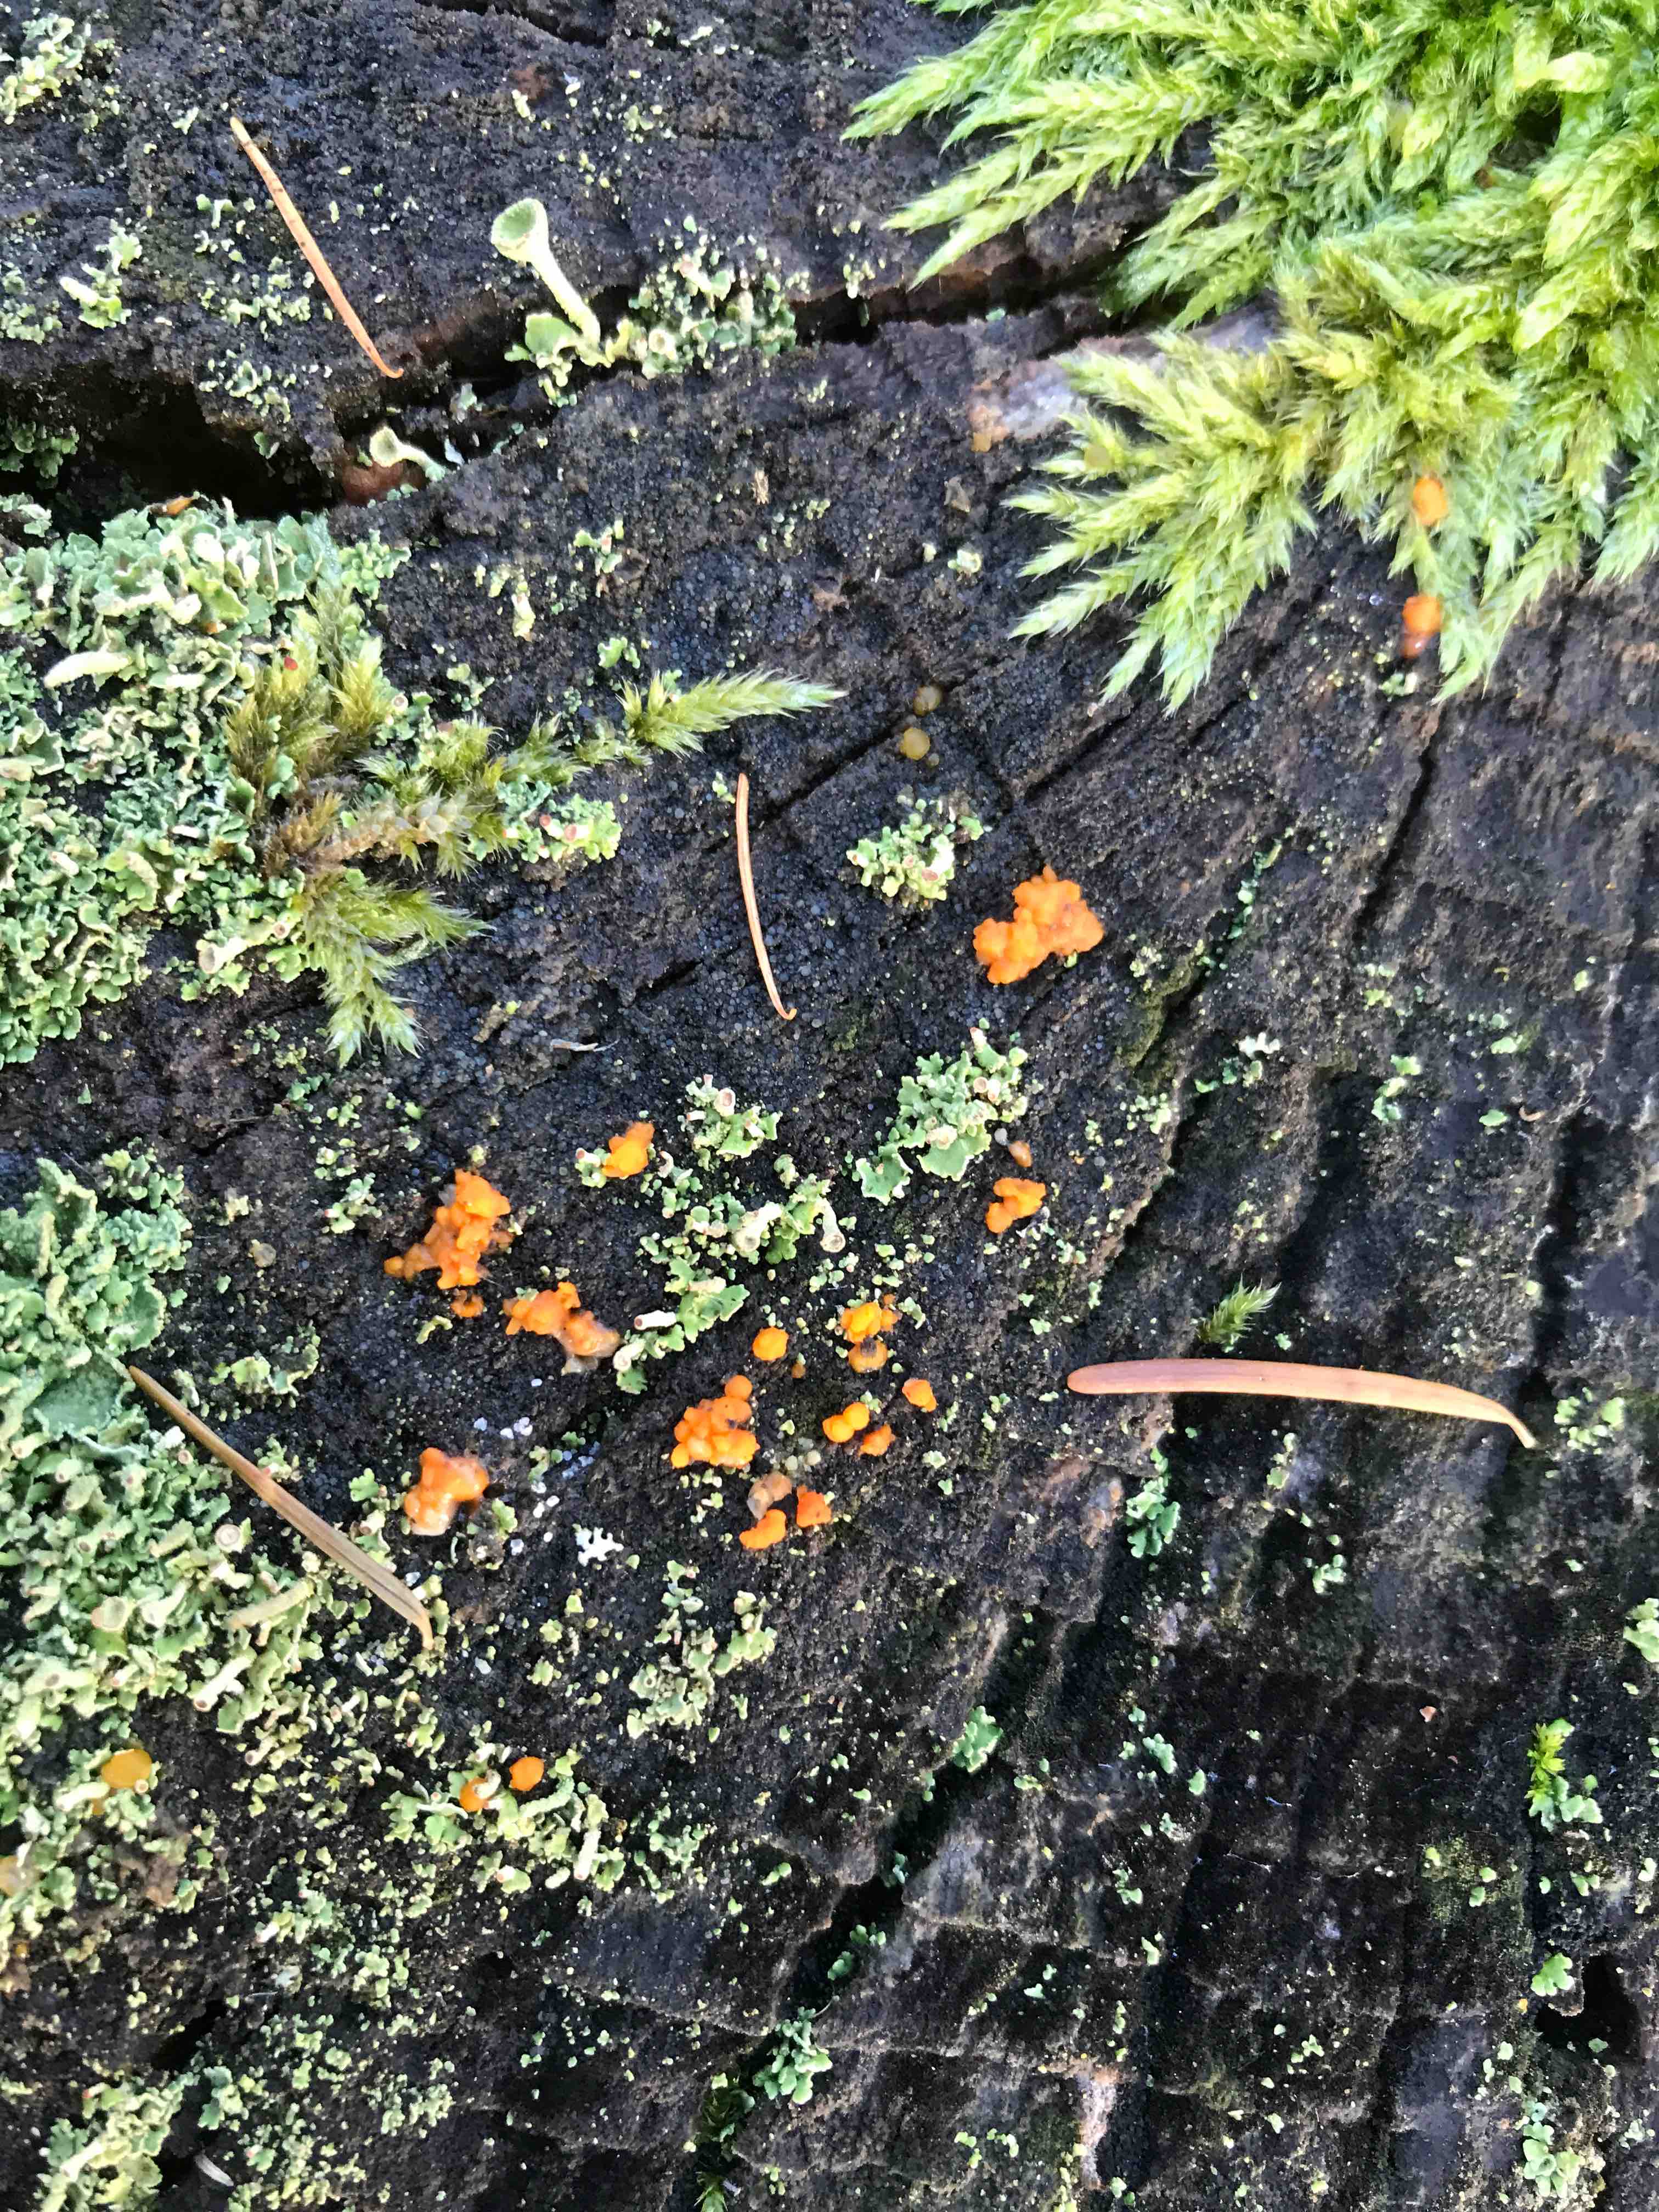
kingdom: Fungi
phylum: Basidiomycota
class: Dacrymycetes
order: Dacrymycetales
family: Dacrymycetaceae
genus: Dacrymyces
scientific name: Dacrymyces stillatus
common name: almindelig tåresvamp
